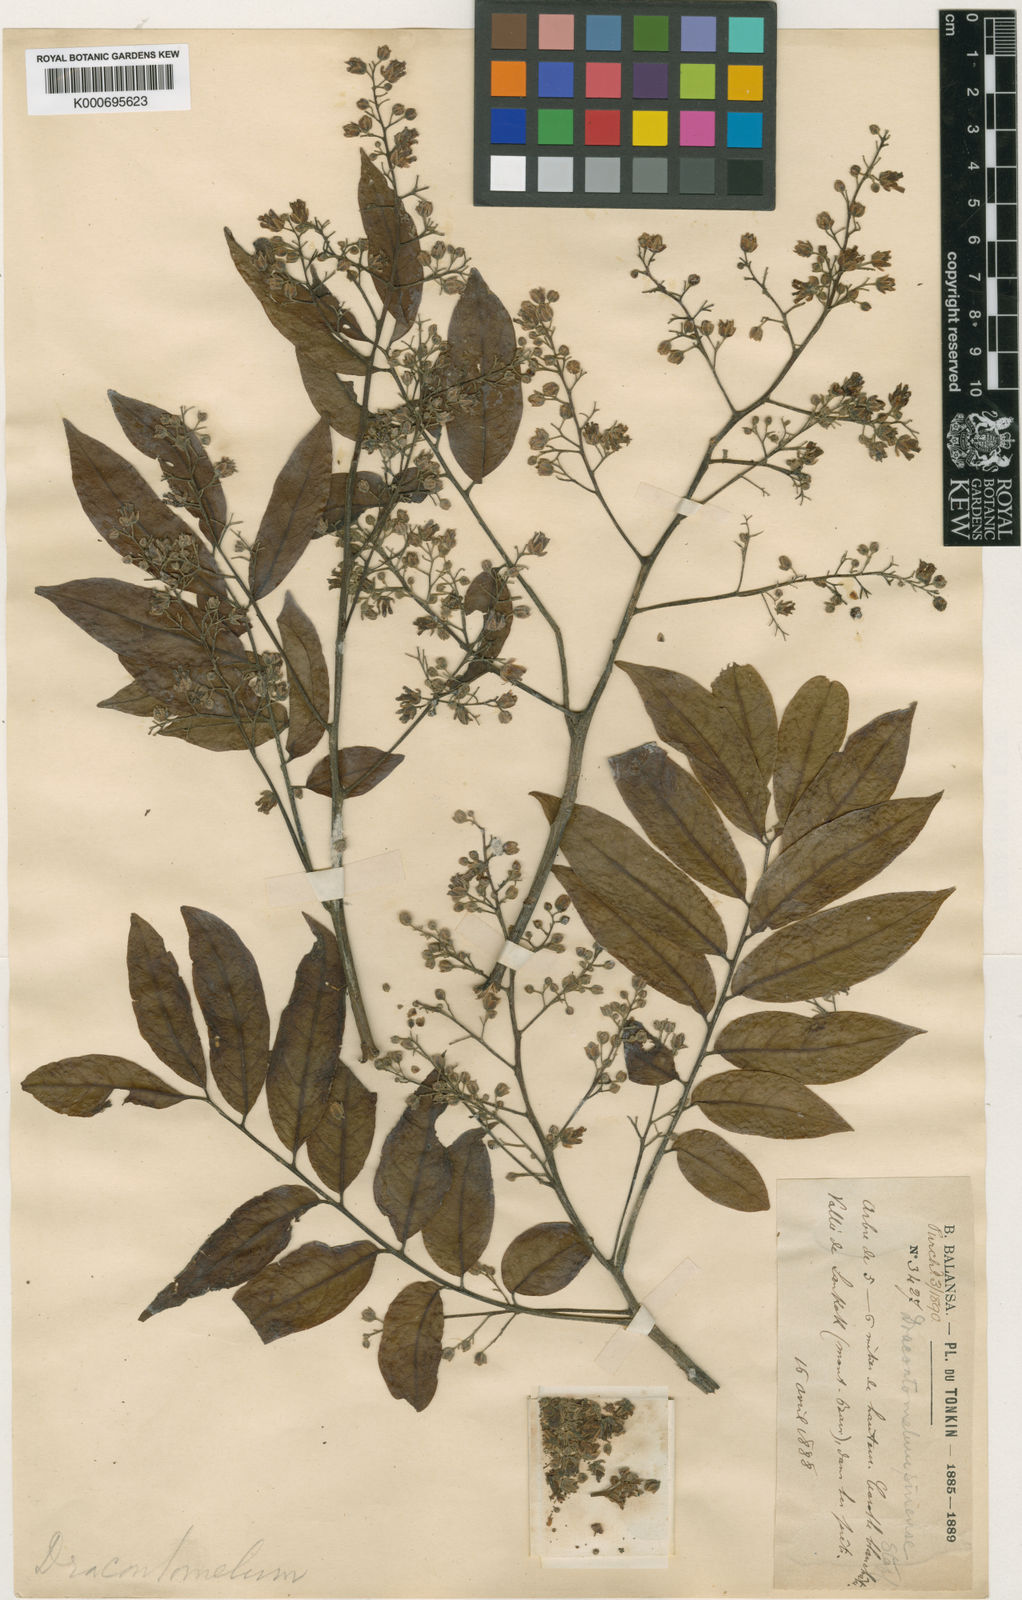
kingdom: Plantae
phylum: Tracheophyta
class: Magnoliopsida
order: Sapindales
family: Anacardiaceae
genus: Dracontomelon
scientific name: Dracontomelon duperreanum
